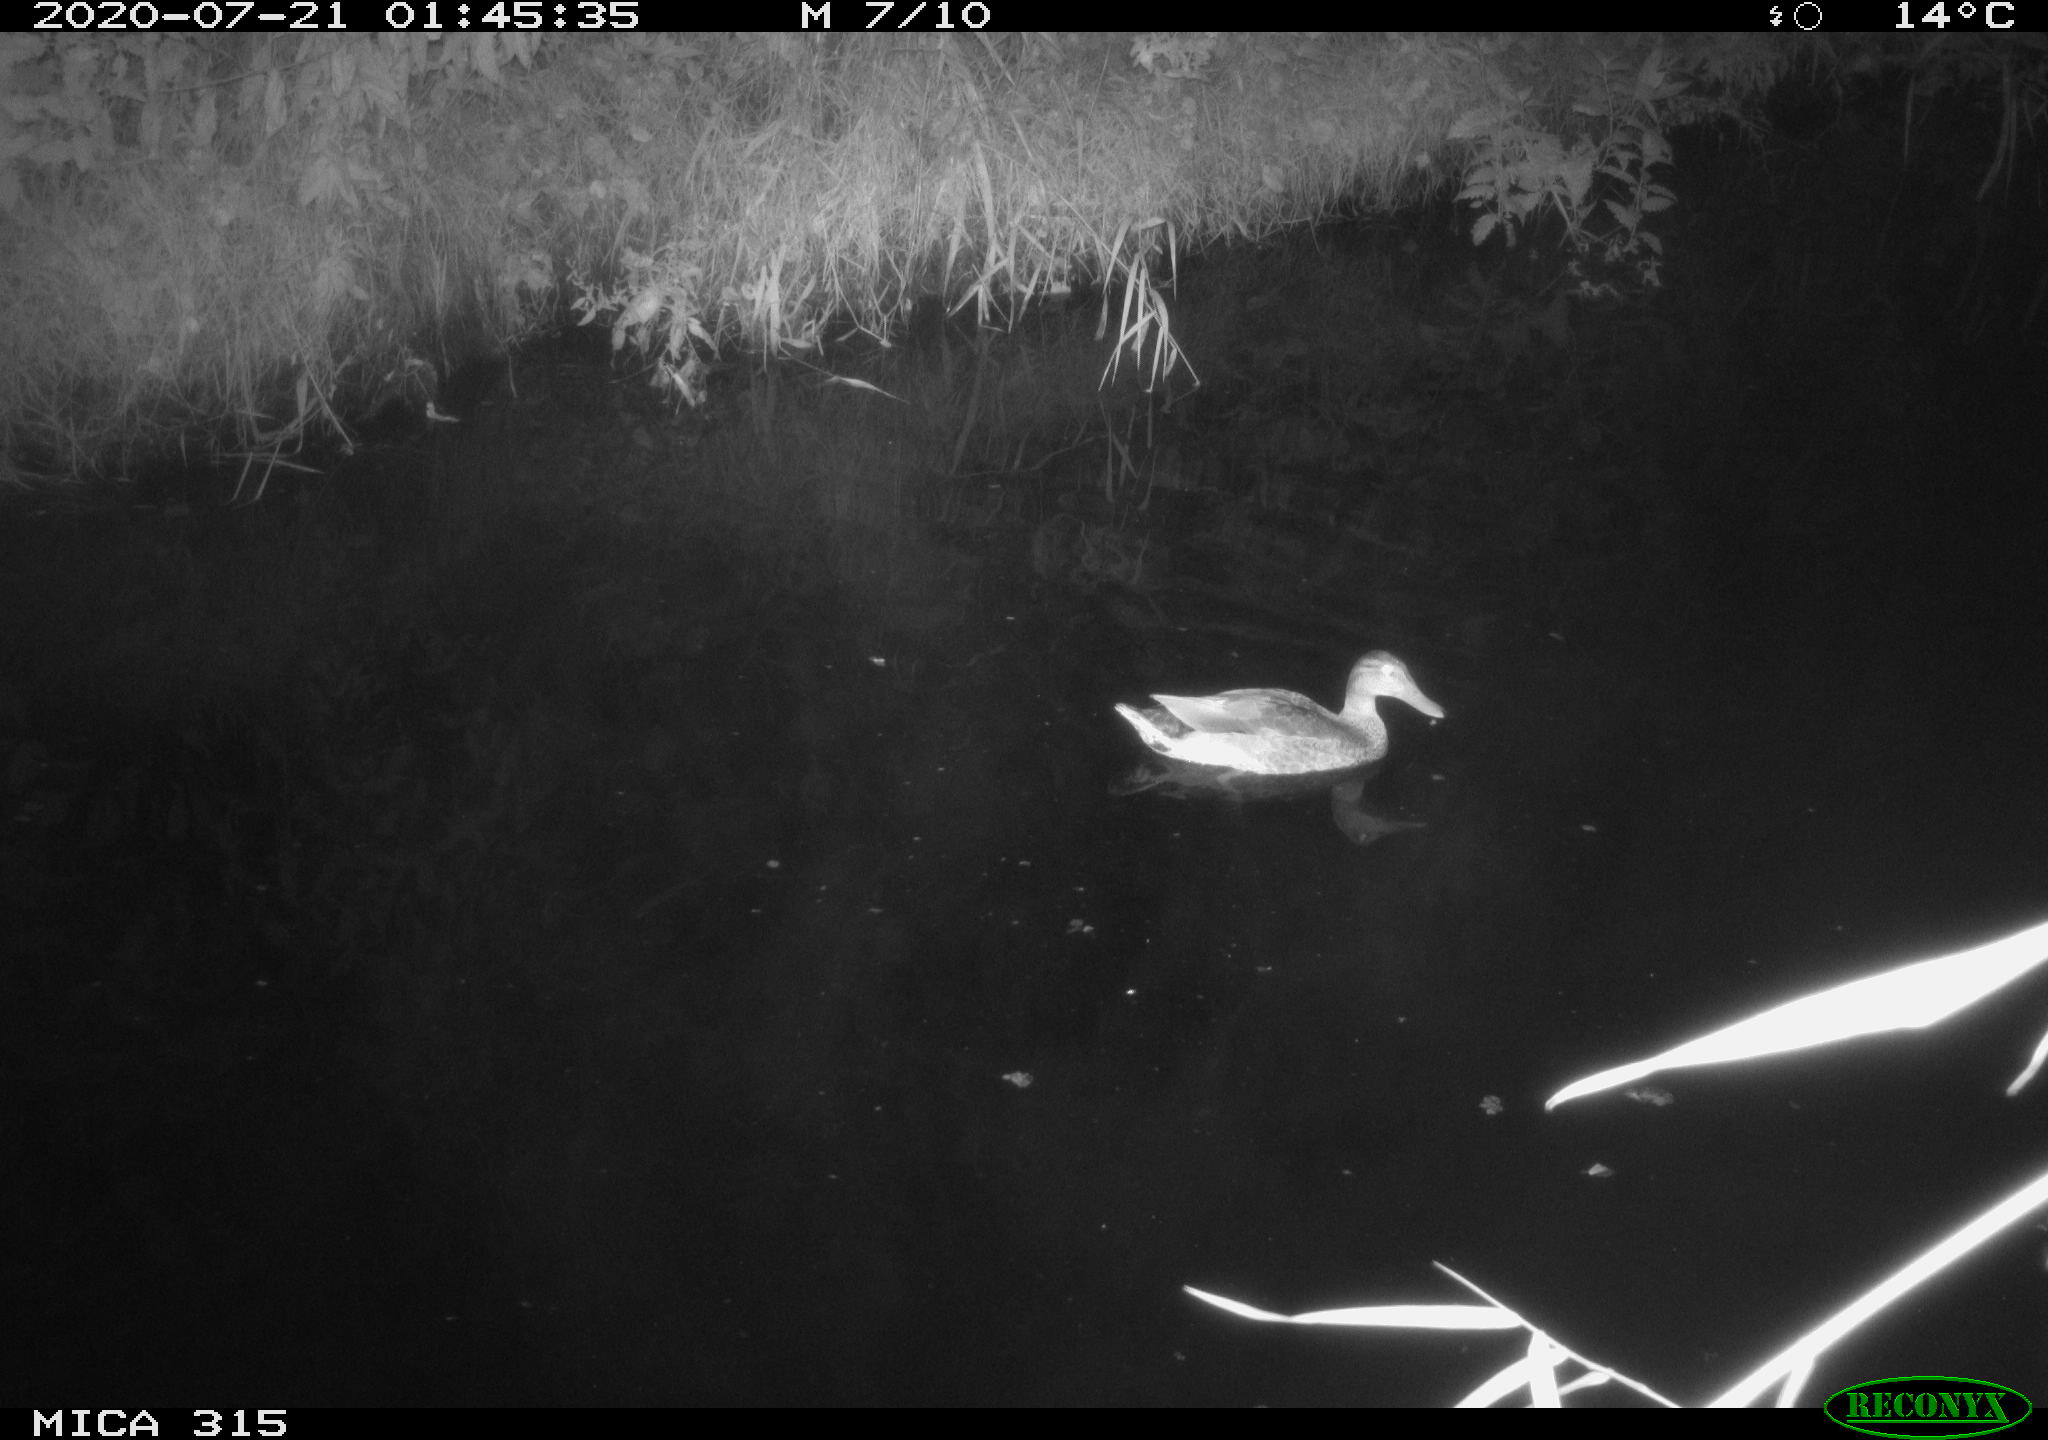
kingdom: Animalia
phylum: Chordata
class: Aves
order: Anseriformes
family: Anatidae
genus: Anas
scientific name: Anas platyrhynchos
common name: Mallard
